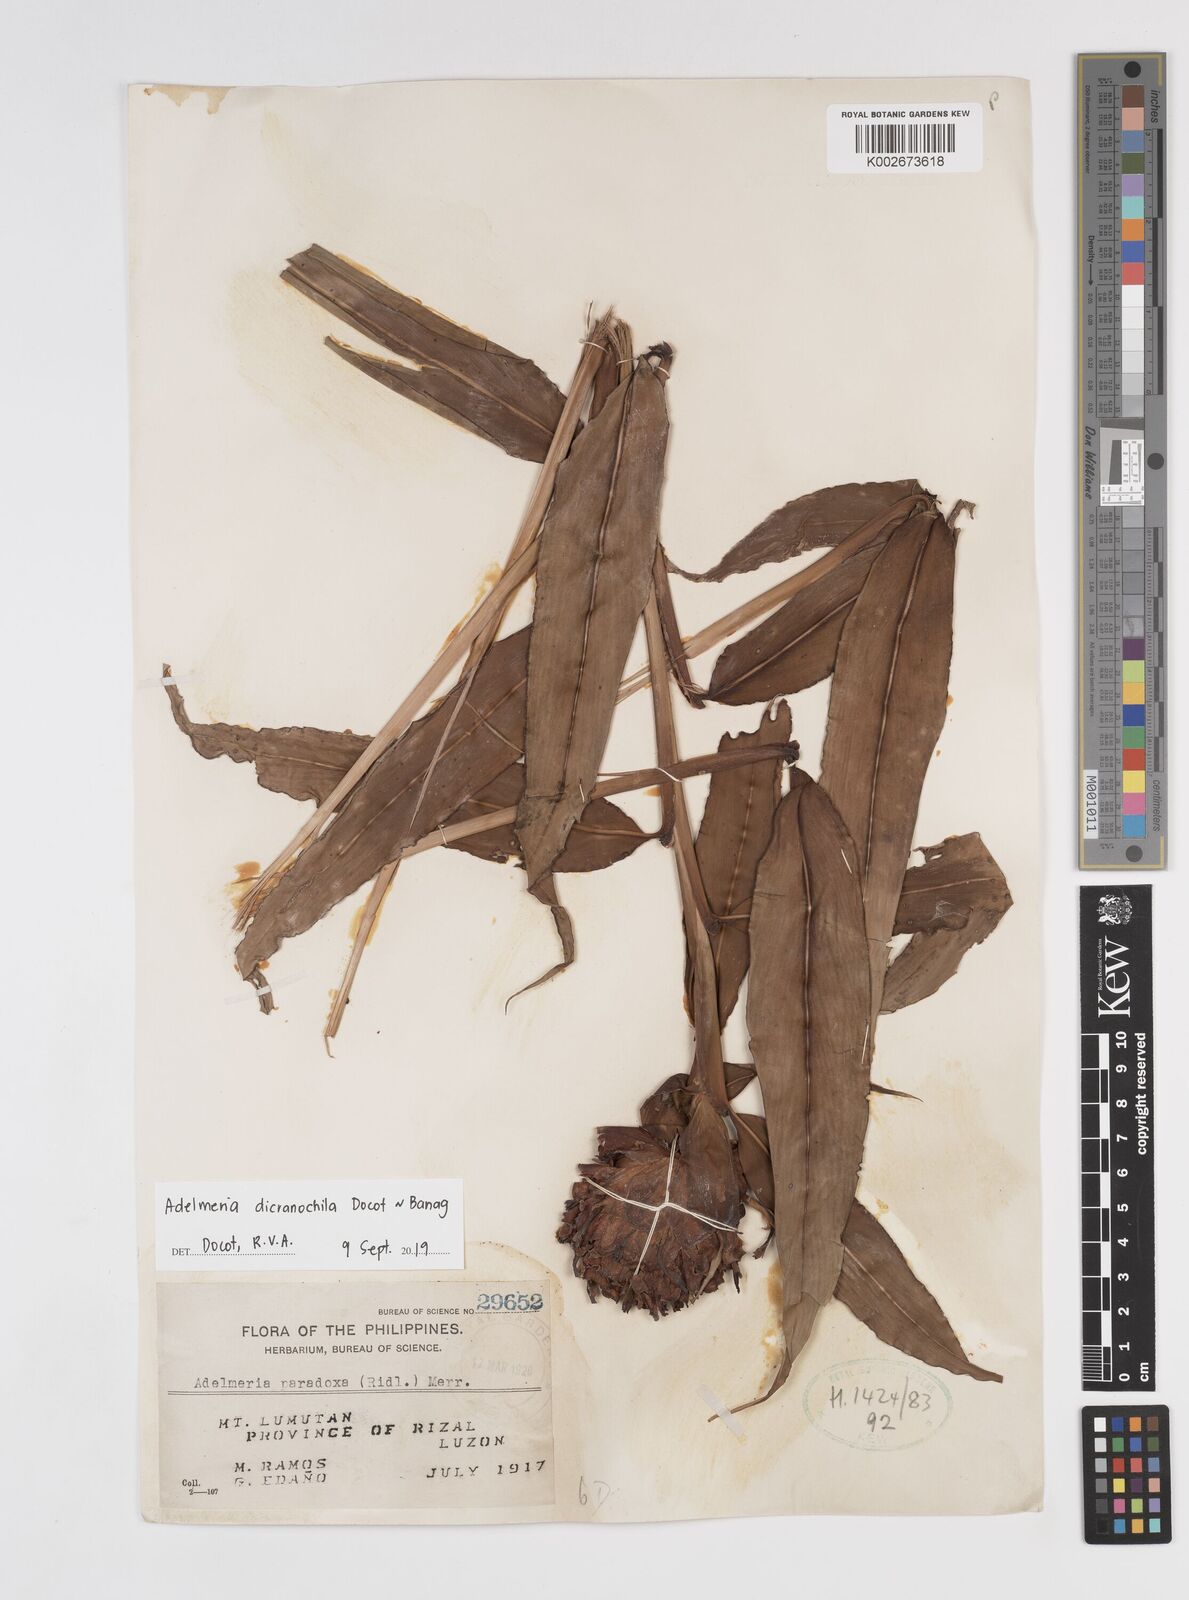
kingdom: Plantae
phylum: Tracheophyta
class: Liliopsida
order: Zingiberales
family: Zingiberaceae
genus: Adelmeria
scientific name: Adelmeria dicranochila
